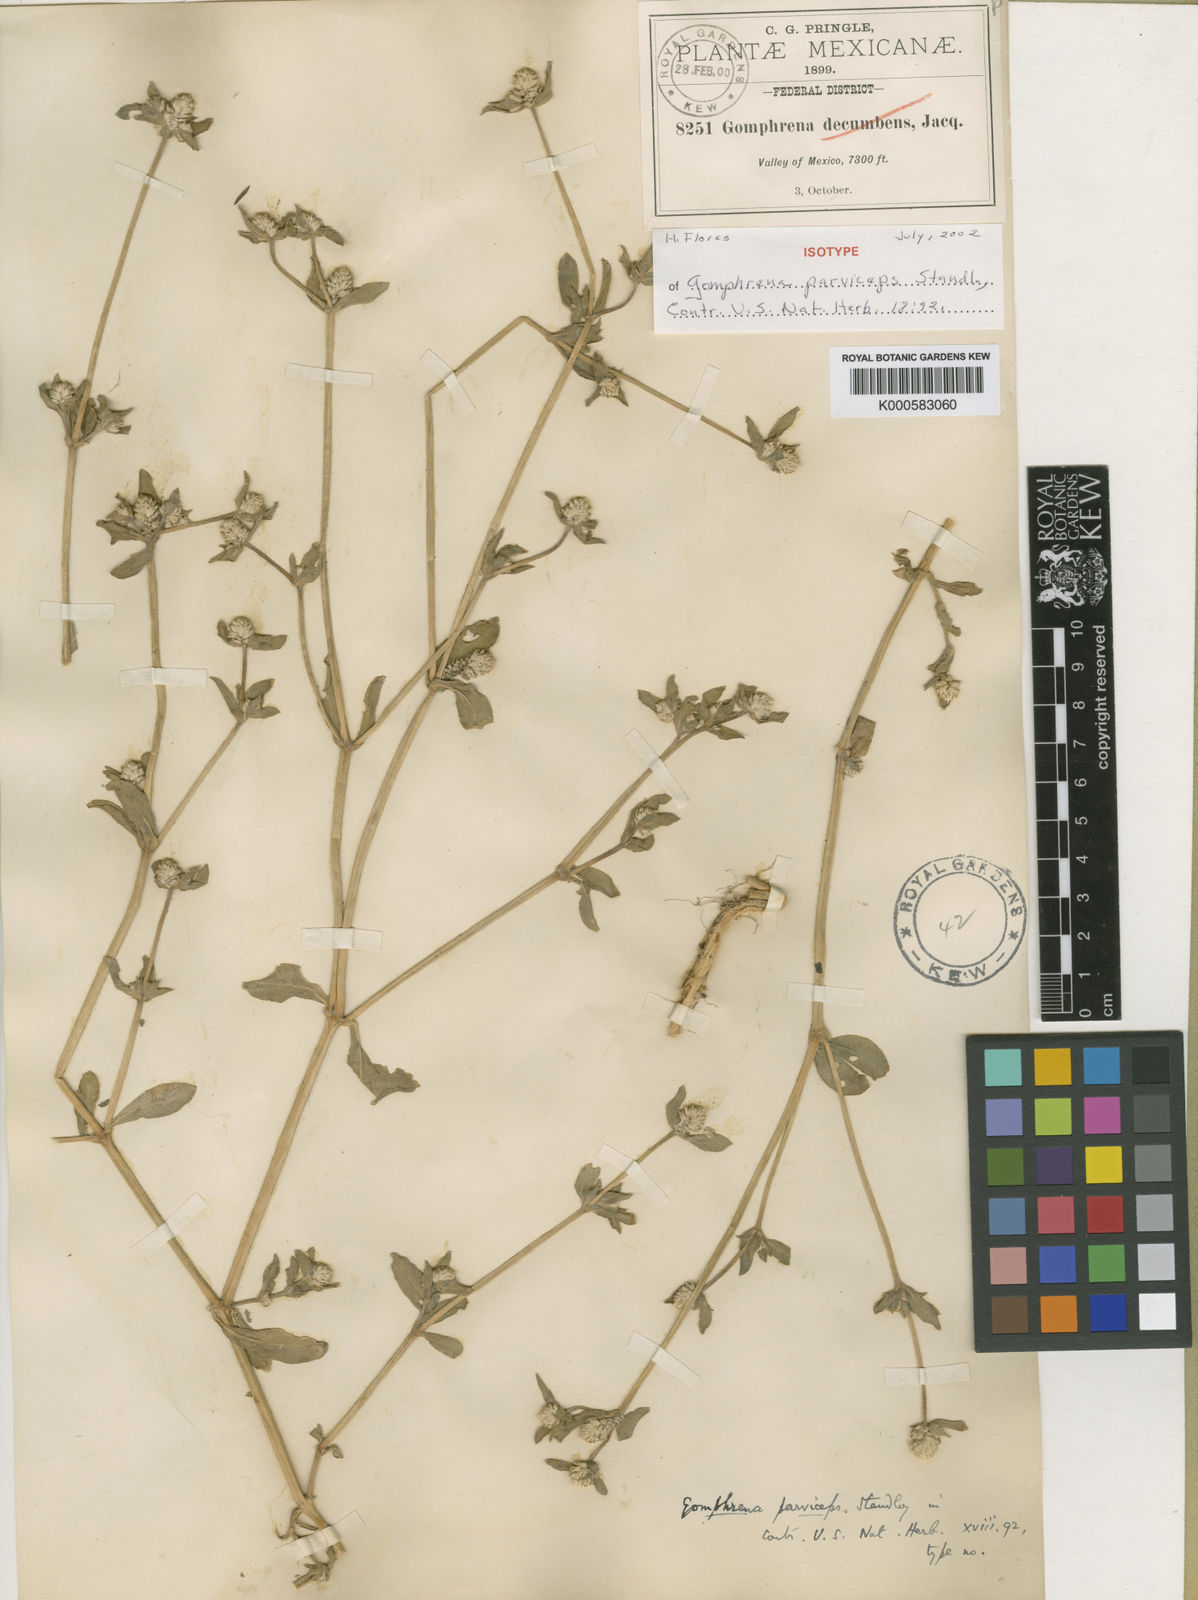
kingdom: Plantae
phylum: Tracheophyta
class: Magnoliopsida
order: Caryophyllales
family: Amaranthaceae
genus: Gomphrena
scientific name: Gomphrena parviceps
